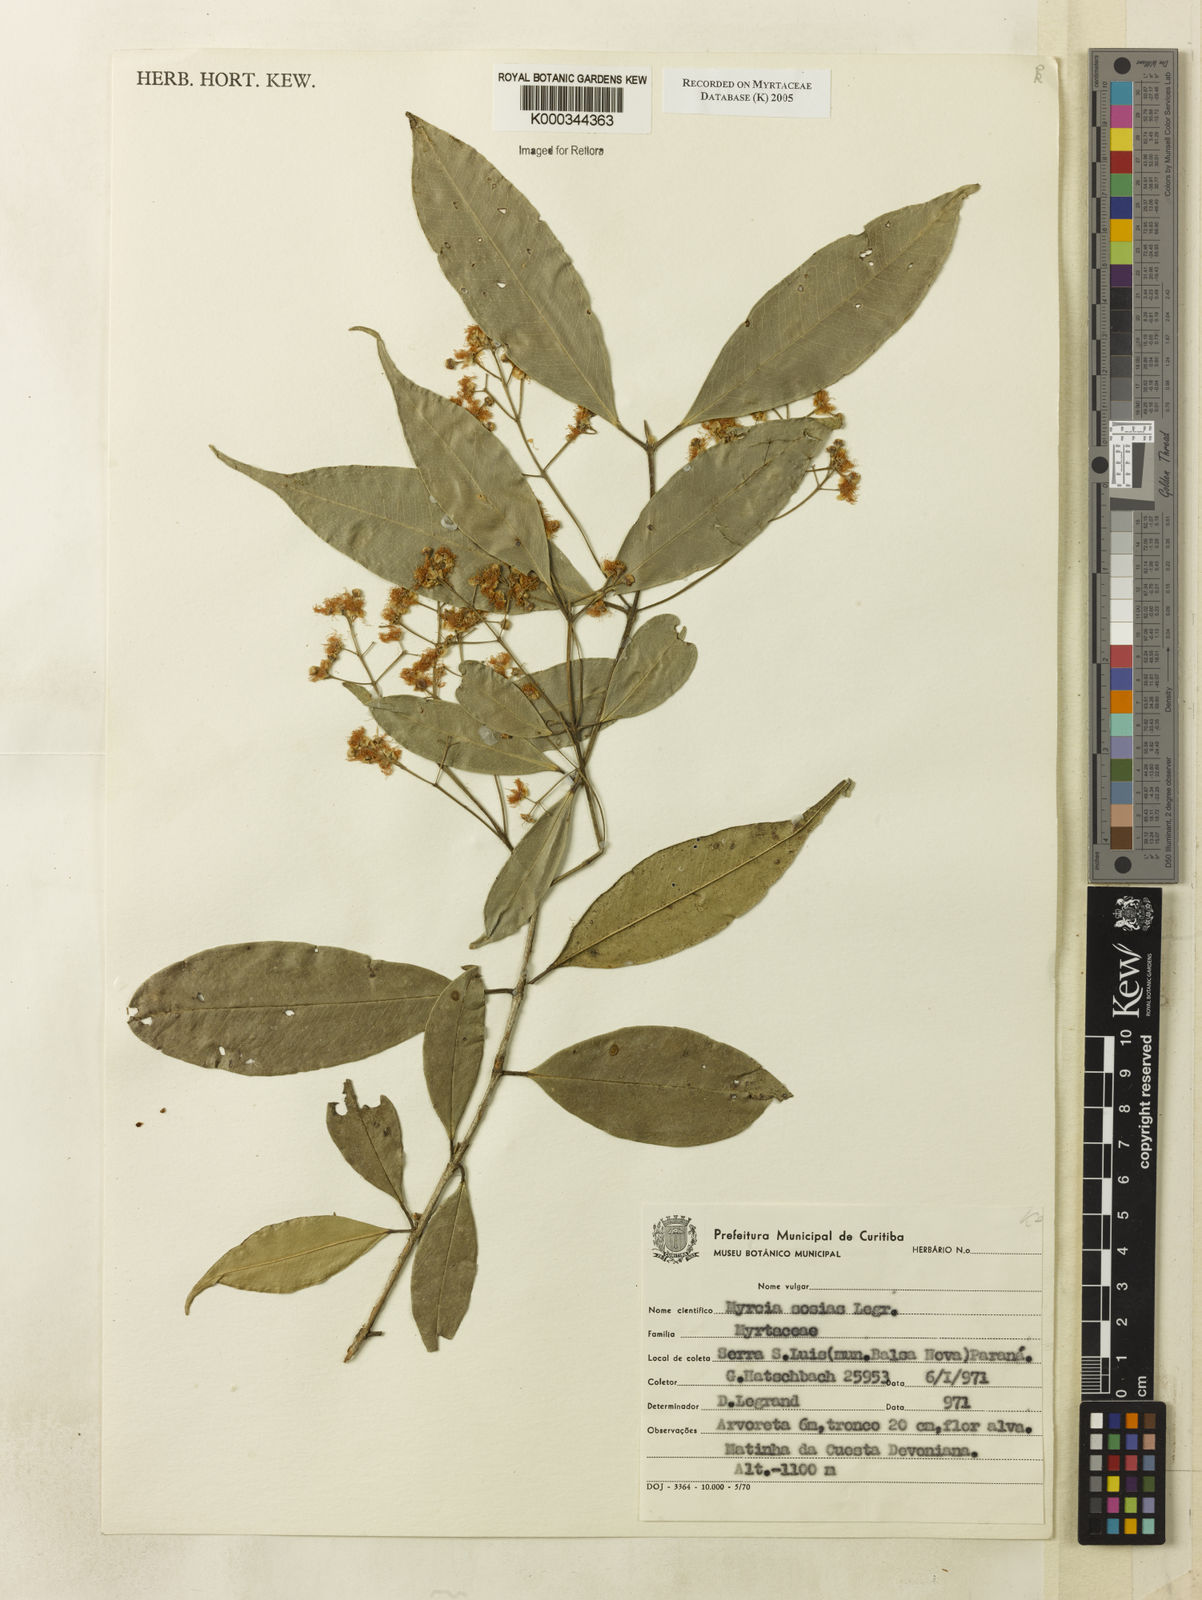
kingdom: Plantae
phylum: Tracheophyta
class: Magnoliopsida
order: Myrtales
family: Myrtaceae
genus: Myrcia
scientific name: Myrcia sosias
